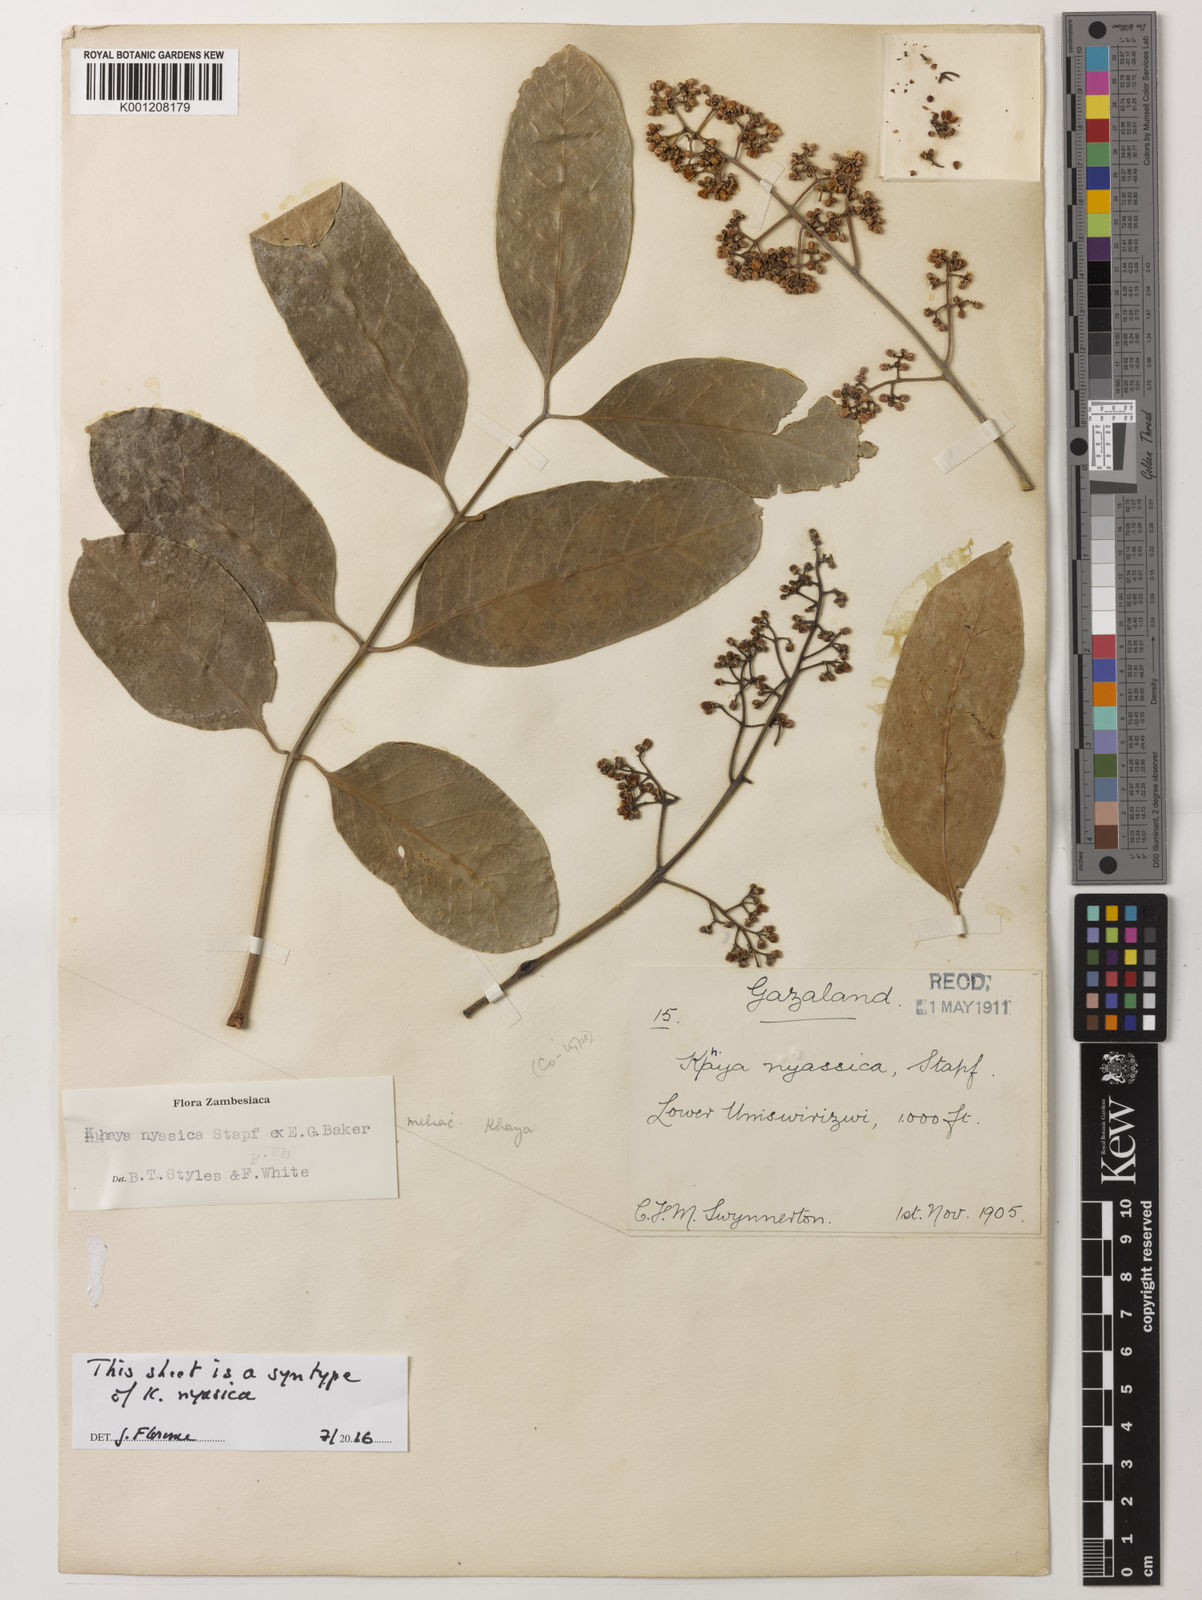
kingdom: Plantae
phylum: Tracheophyta
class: Magnoliopsida
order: Sapindales
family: Meliaceae
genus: Khaya
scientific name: Khaya nyasica
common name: Nyasaland mahogany
